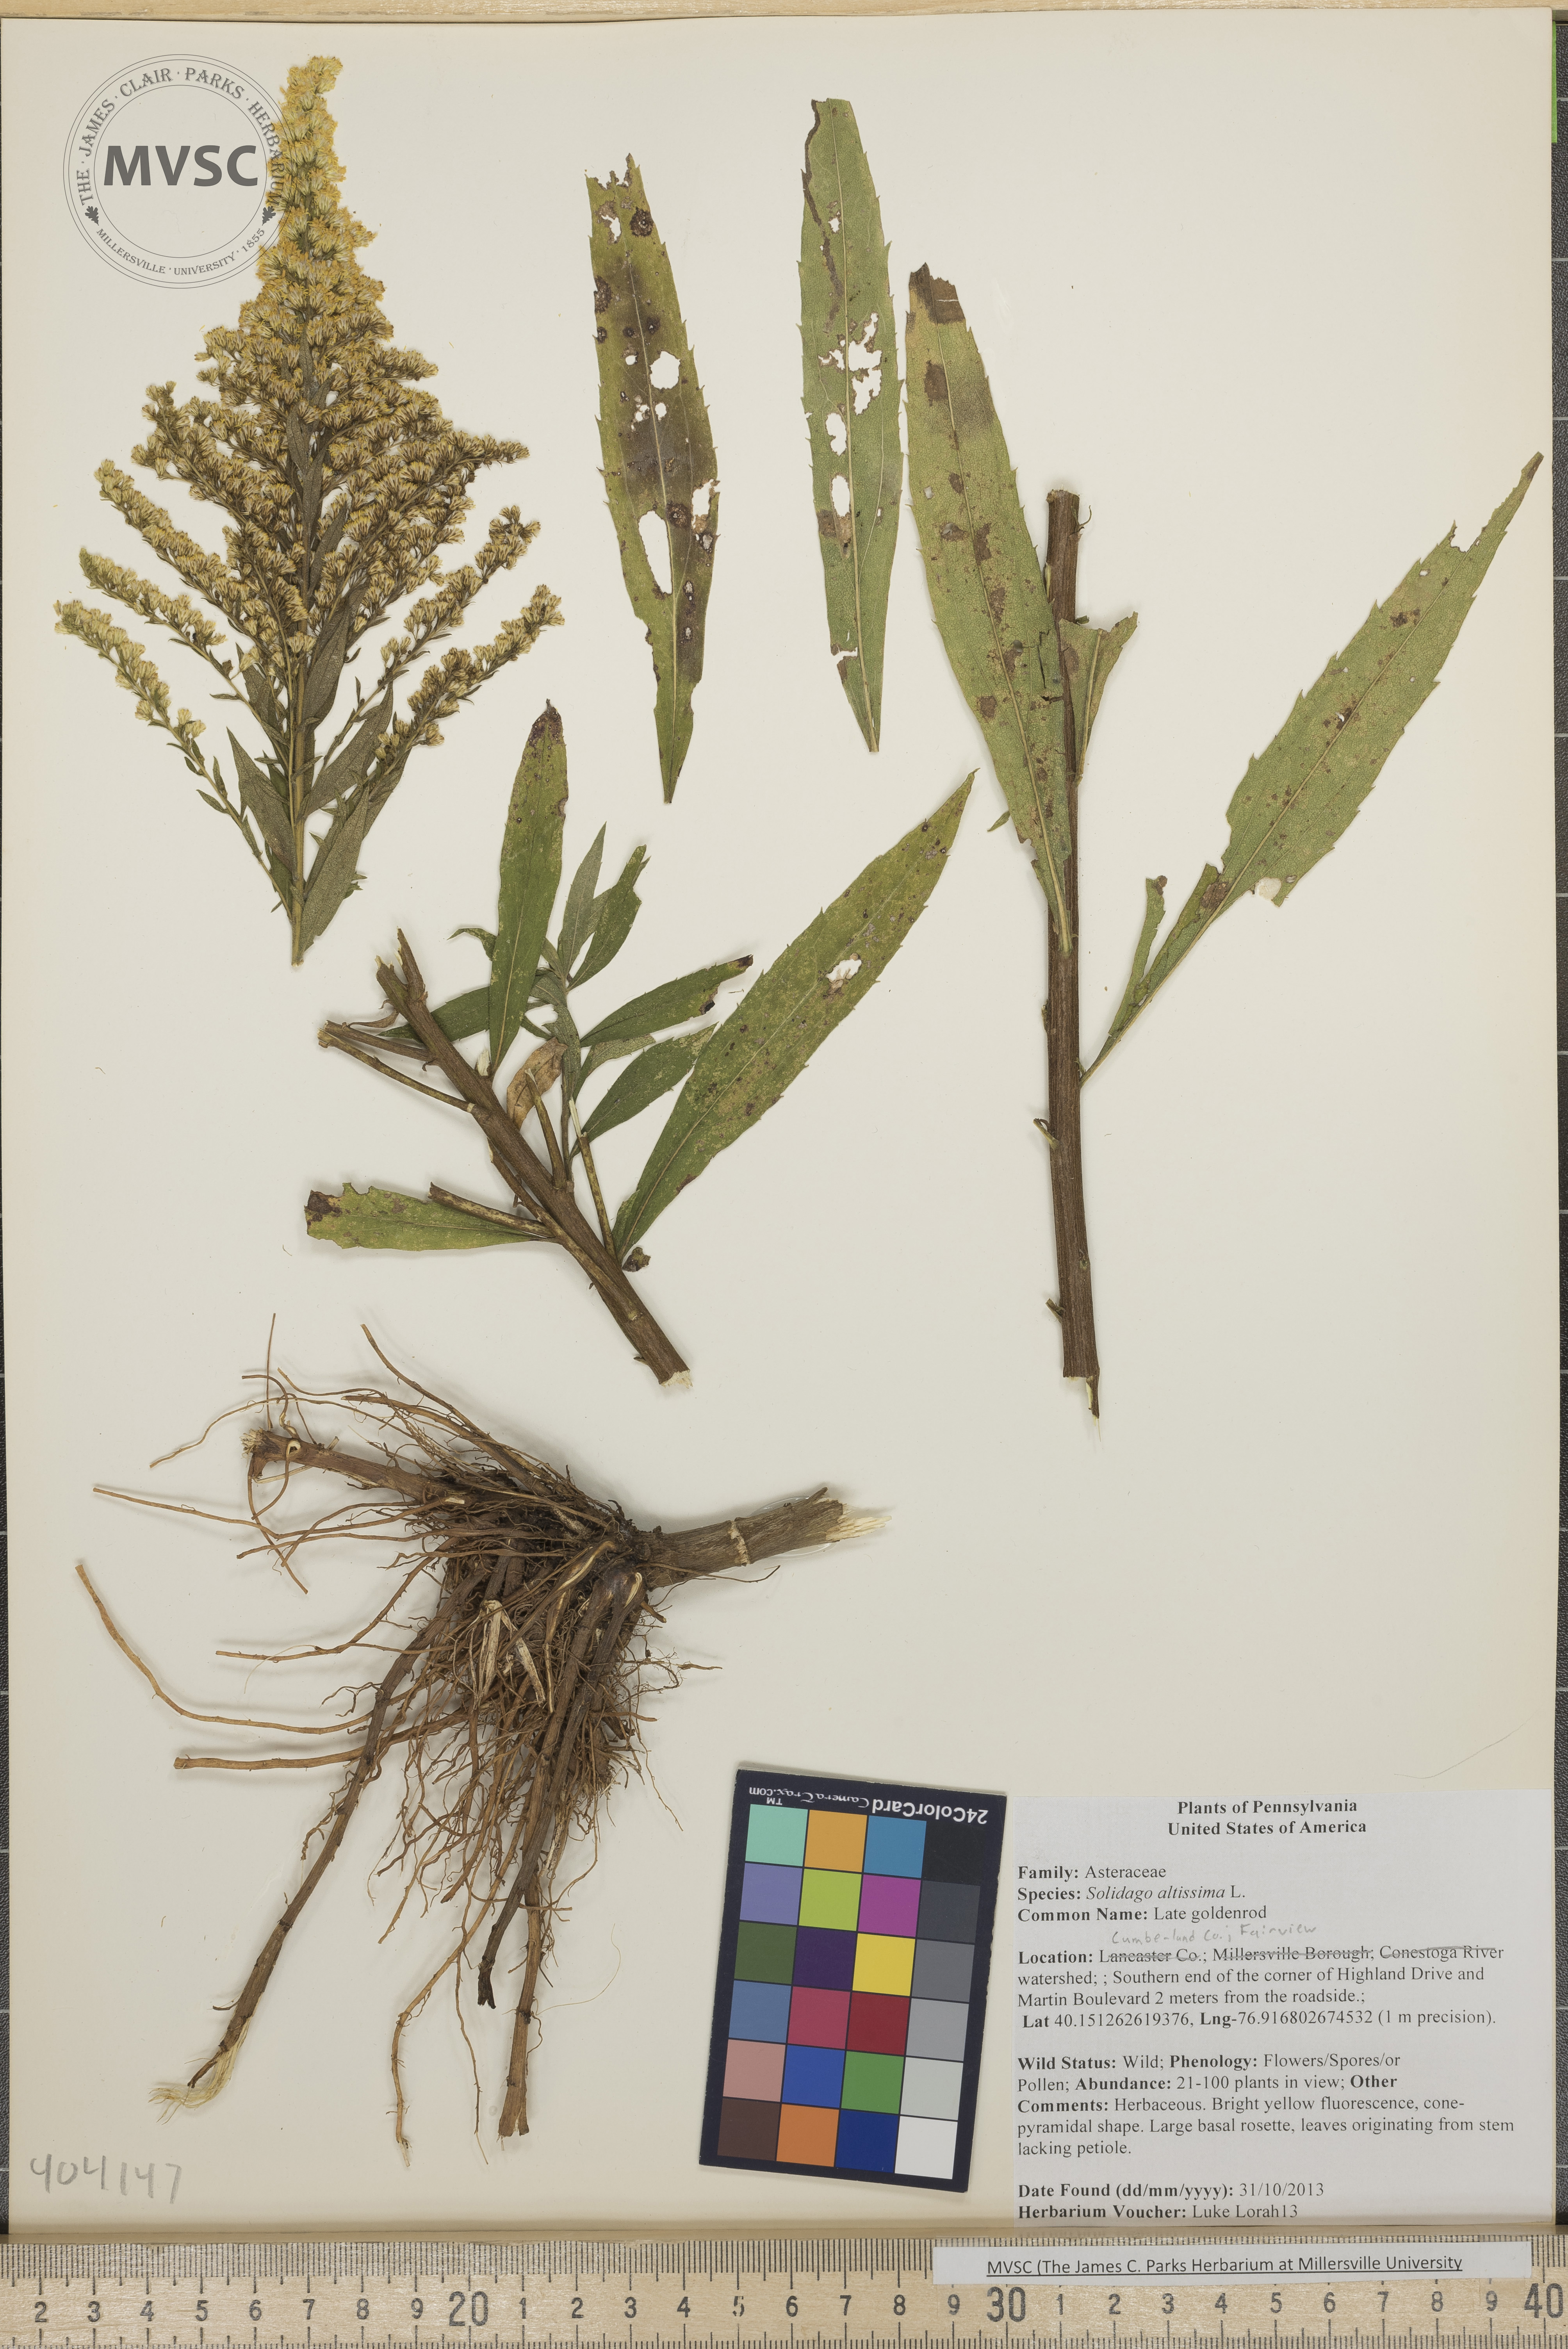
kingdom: Plantae
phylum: Tracheophyta
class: Magnoliopsida
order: Asterales
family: Asteraceae
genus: Solidago
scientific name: Solidago altissima
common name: Late goldenrod
